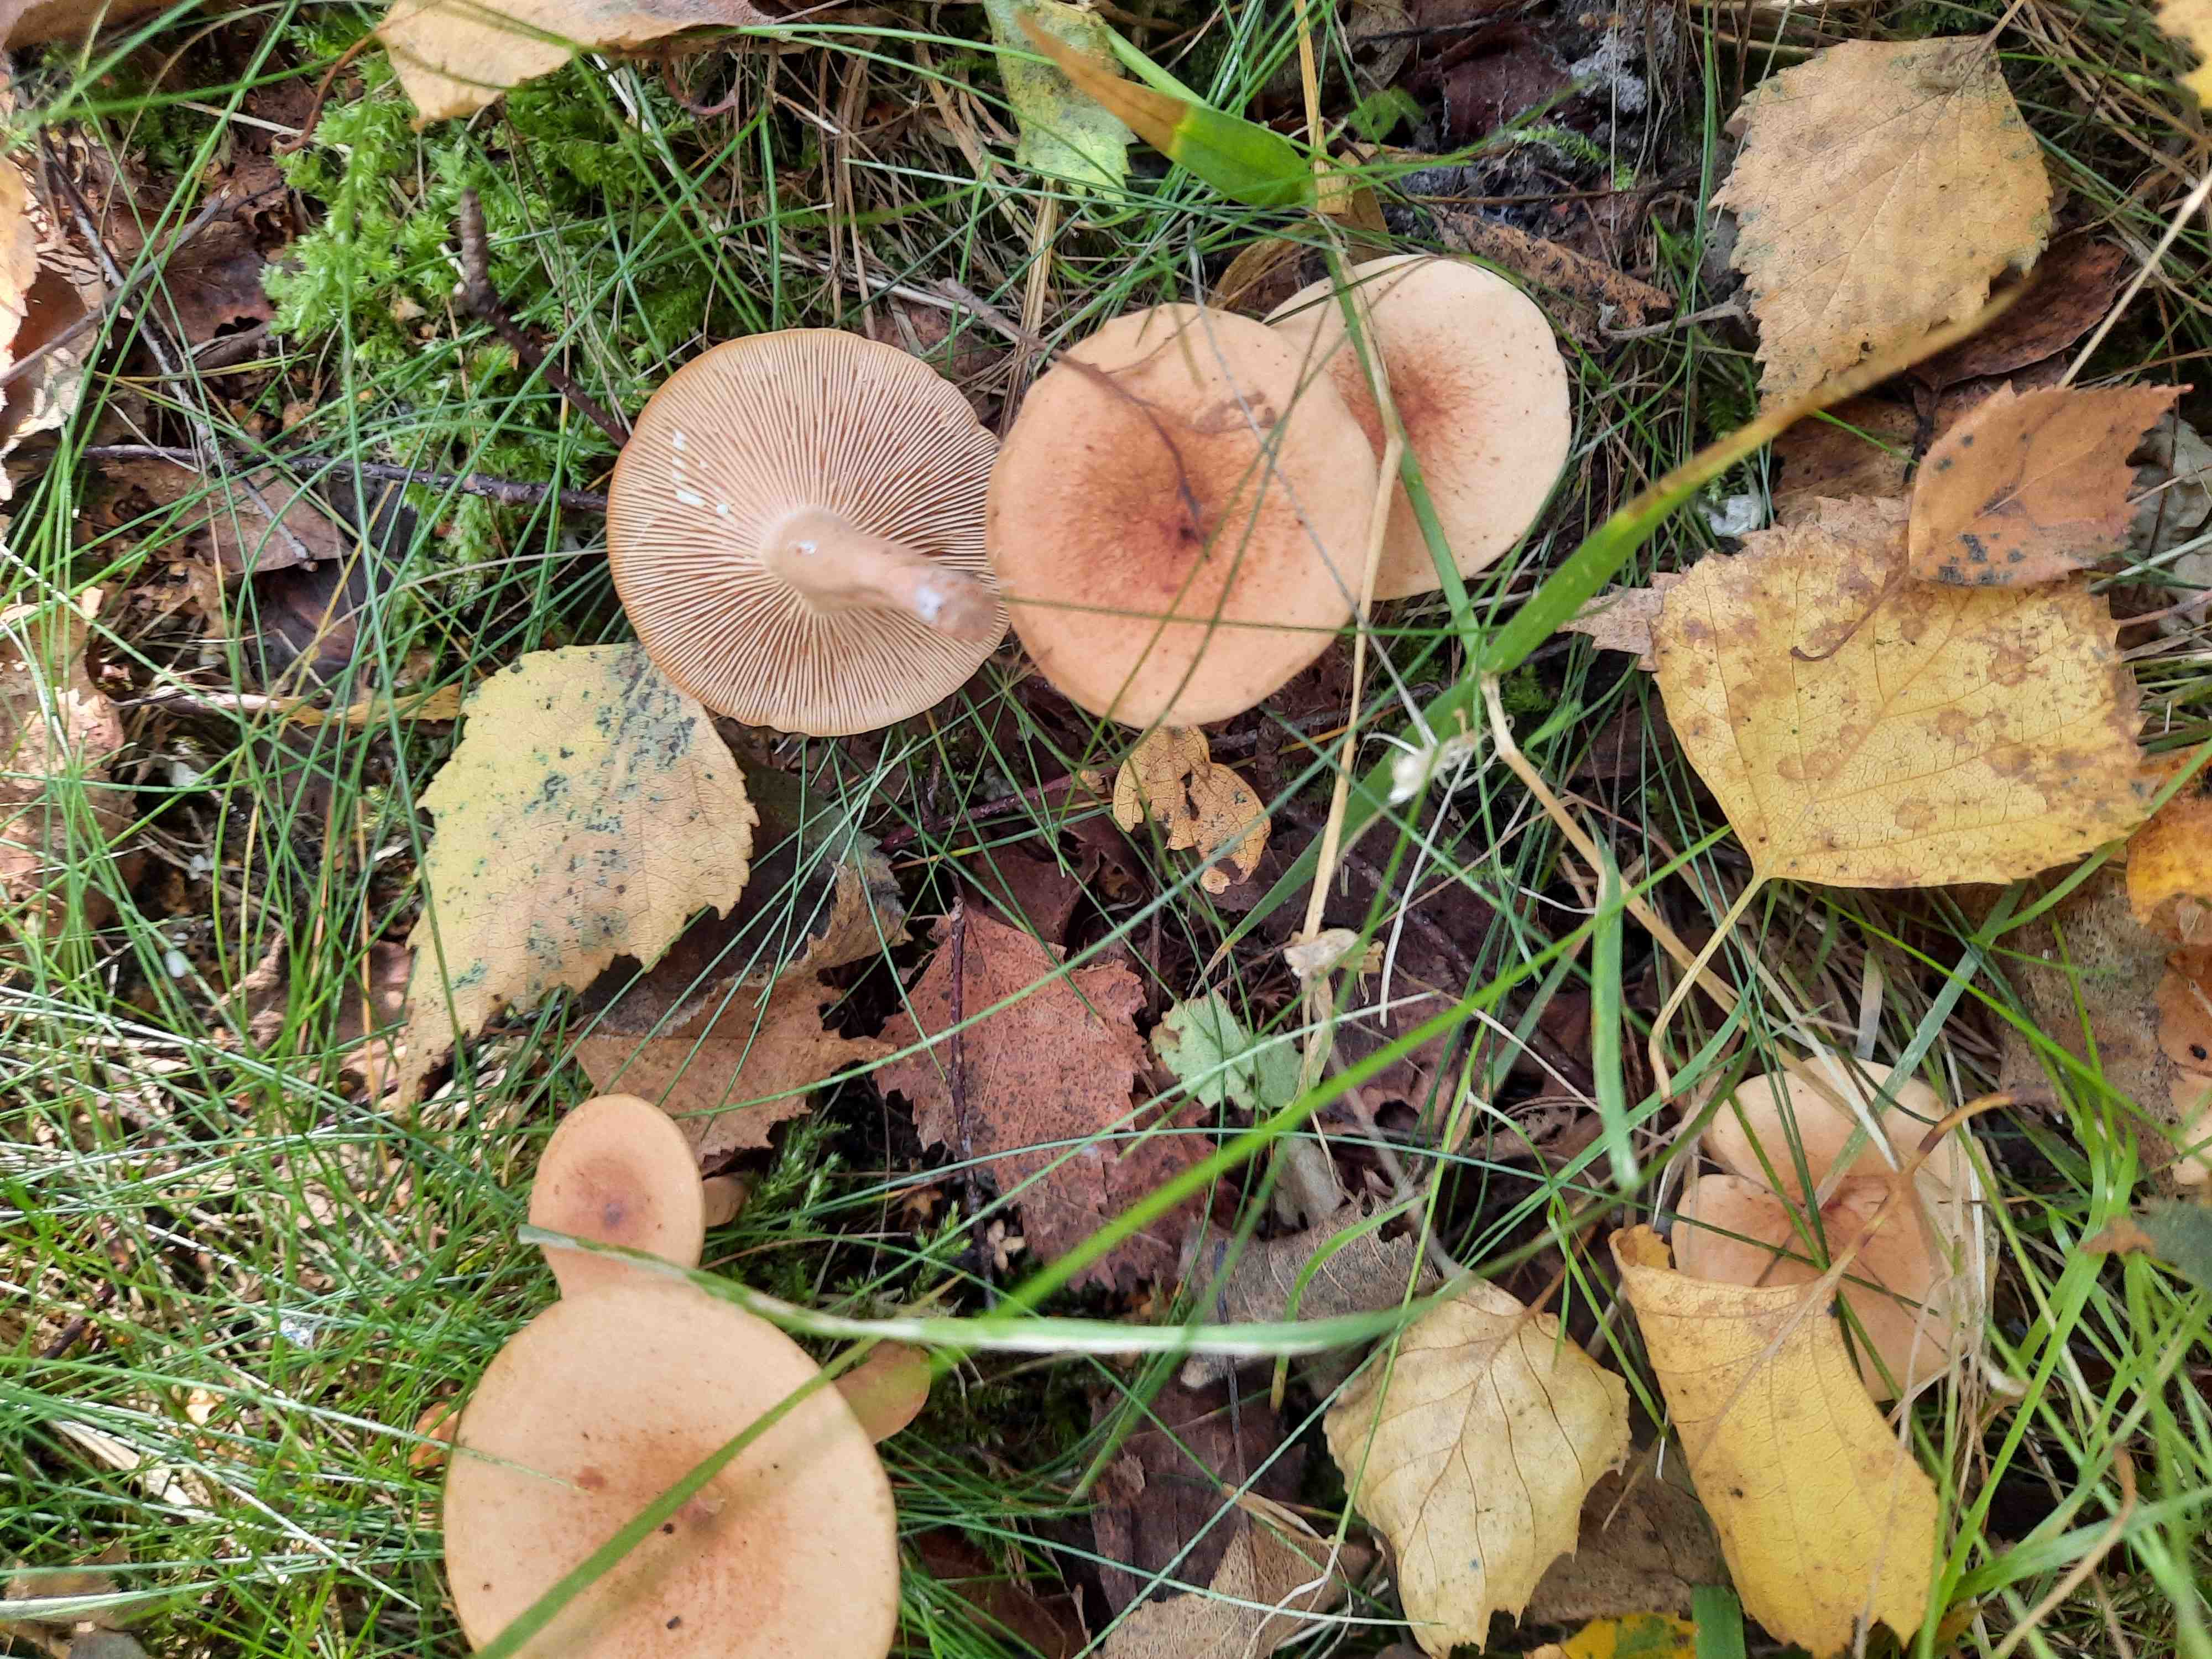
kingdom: Fungi
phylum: Basidiomycota
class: Agaricomycetes
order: Russulales
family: Russulaceae
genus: Lactarius
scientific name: Lactarius
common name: mælkehat
